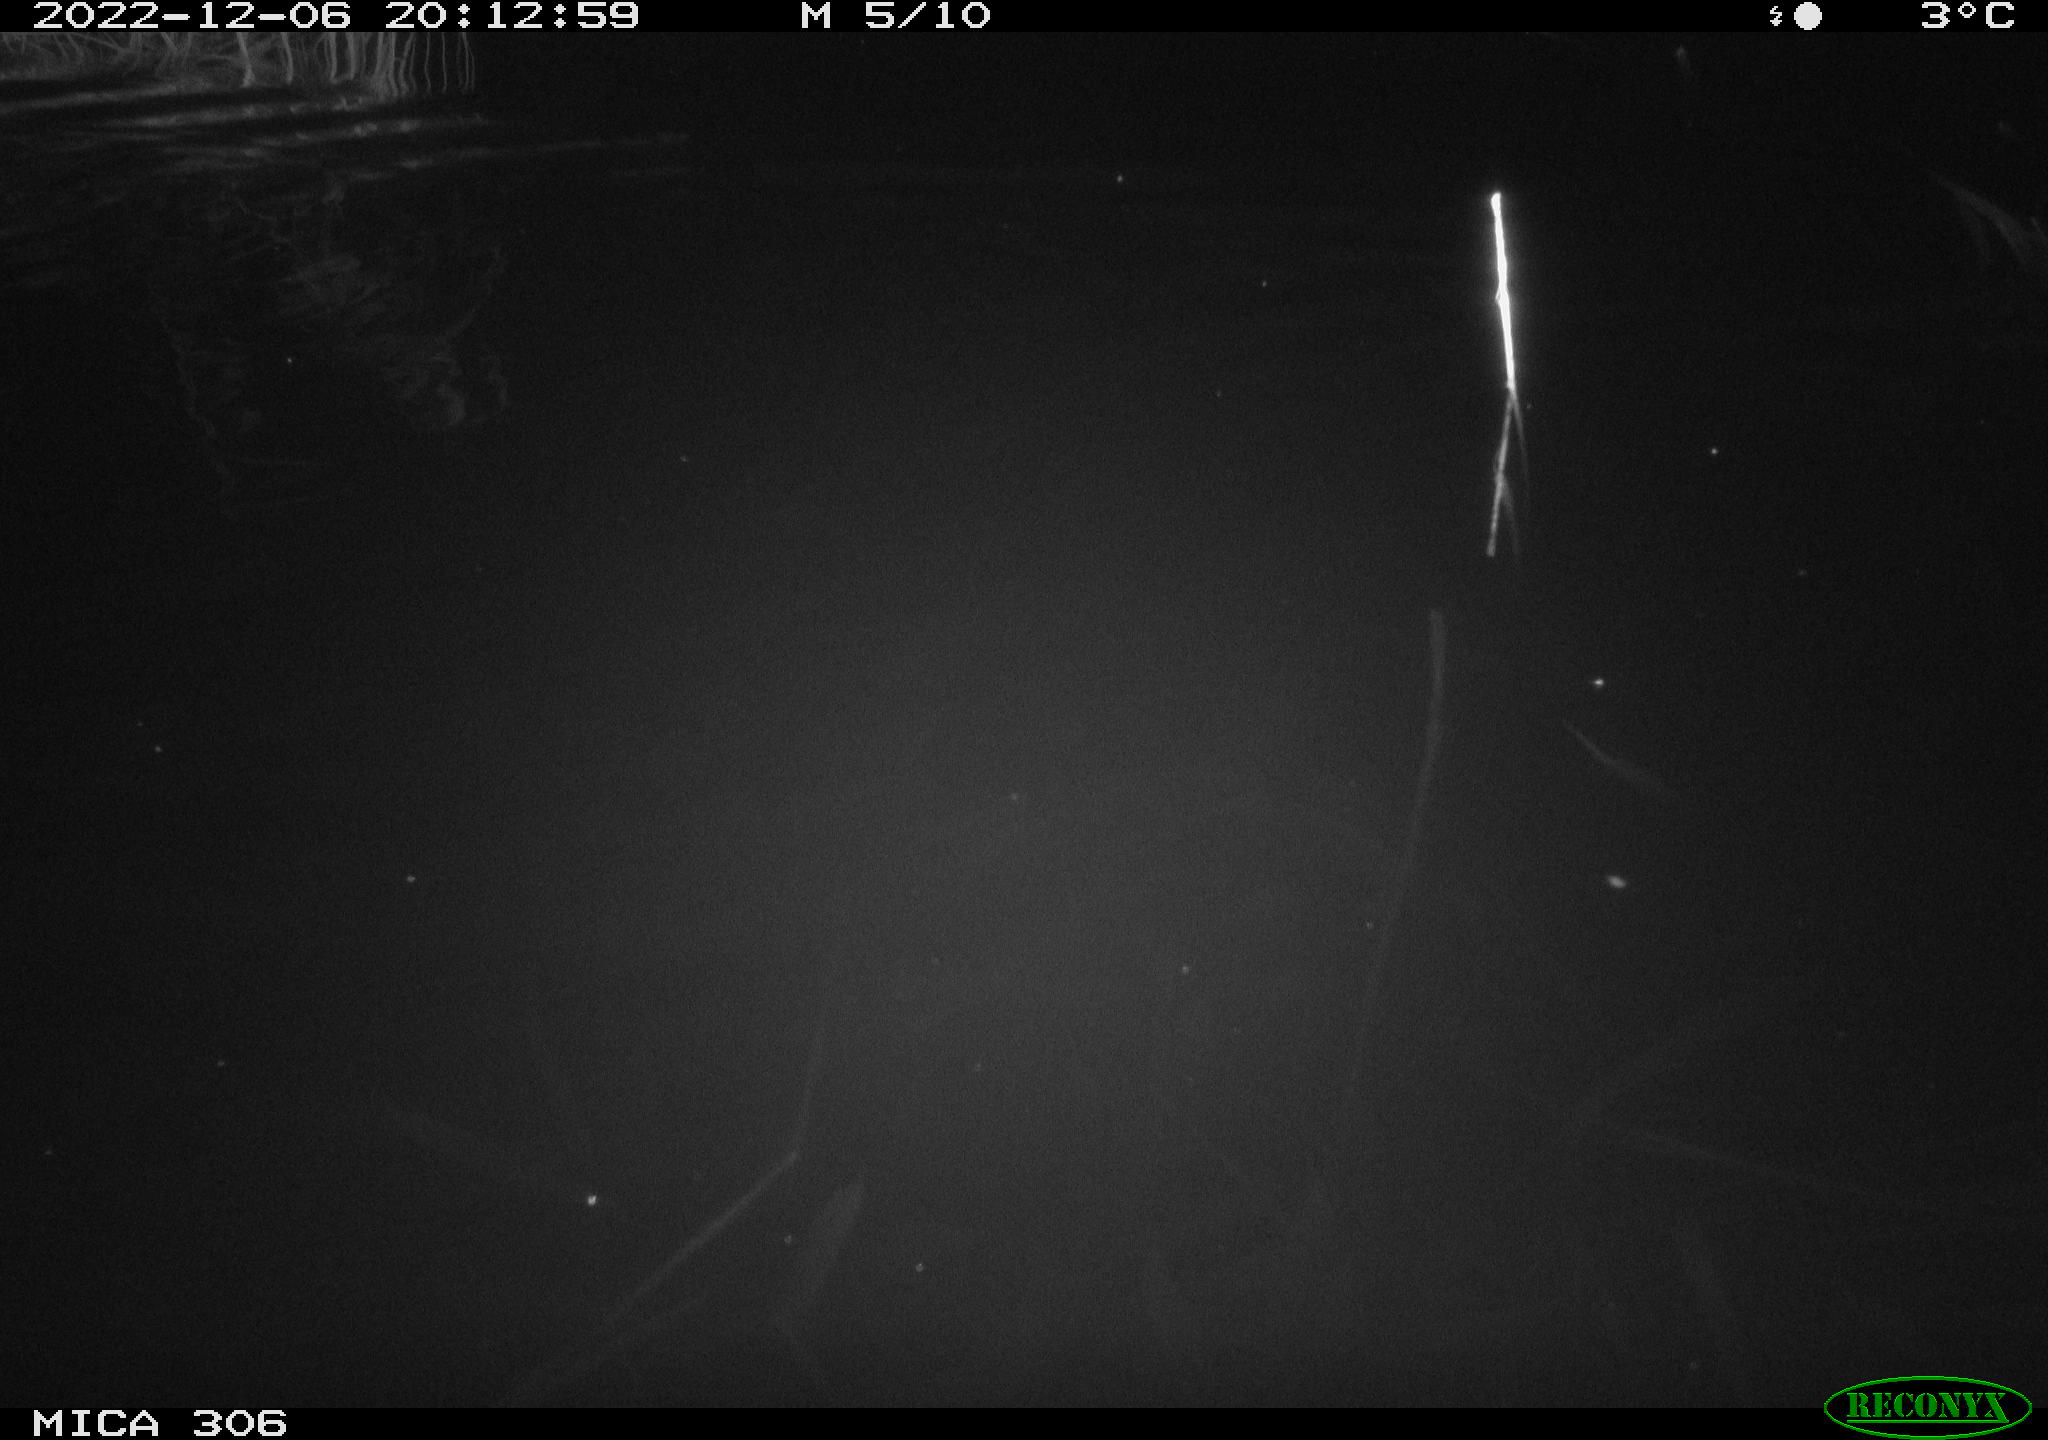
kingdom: Animalia
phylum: Chordata
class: Mammalia
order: Rodentia
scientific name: Rodentia
